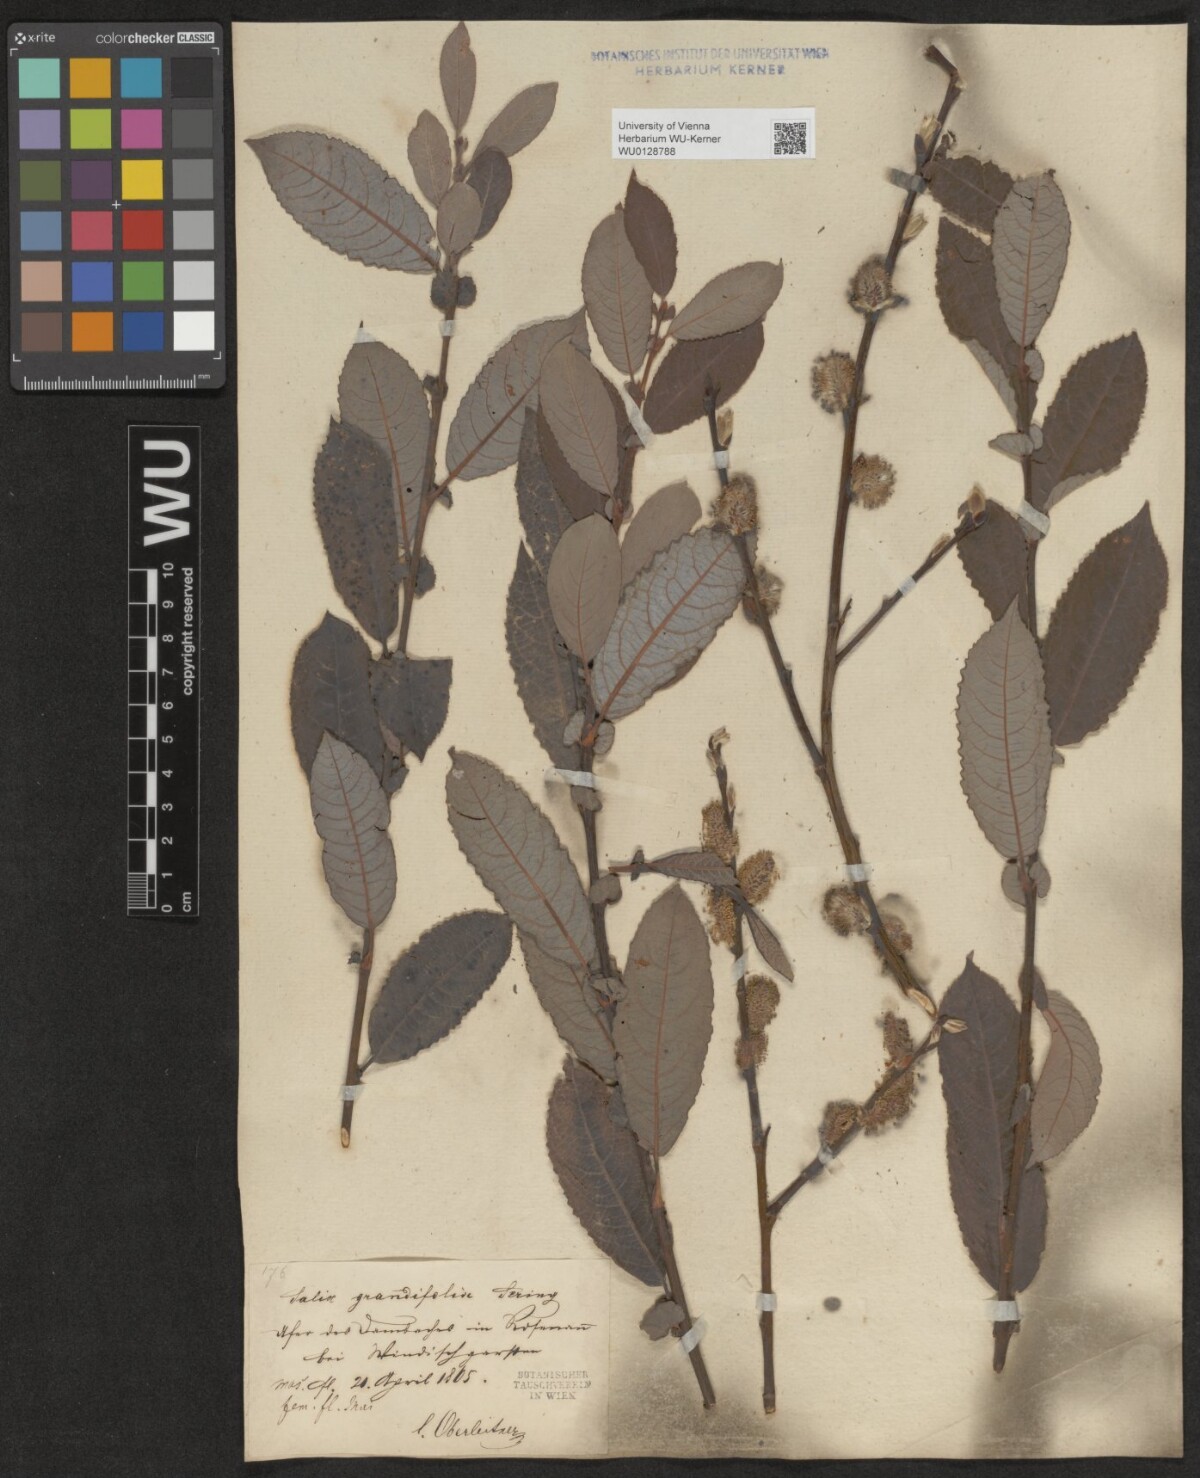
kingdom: Plantae
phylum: Tracheophyta
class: Magnoliopsida
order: Malpighiales
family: Salicaceae
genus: Salix
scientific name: Salix appendiculata
